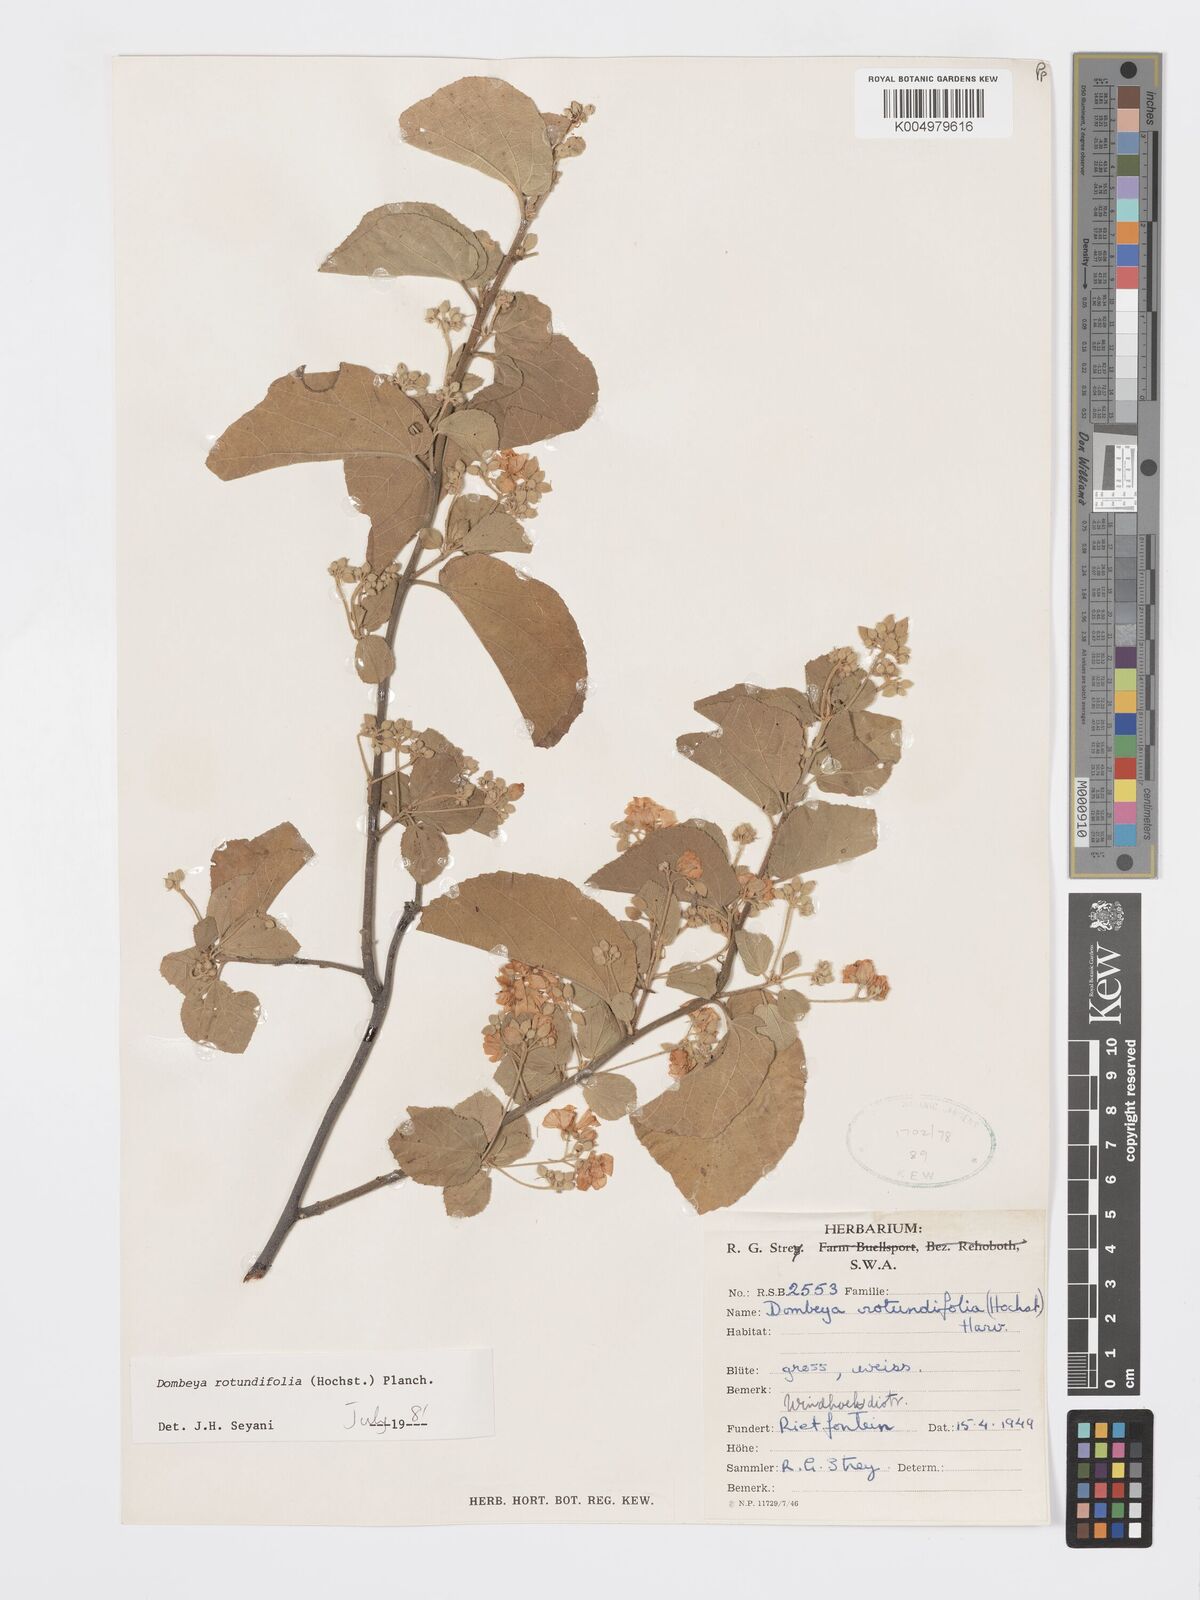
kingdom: Plantae
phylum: Tracheophyta
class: Magnoliopsida
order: Malvales
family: Malvaceae
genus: Dombeya
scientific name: Dombeya rotundifolia
